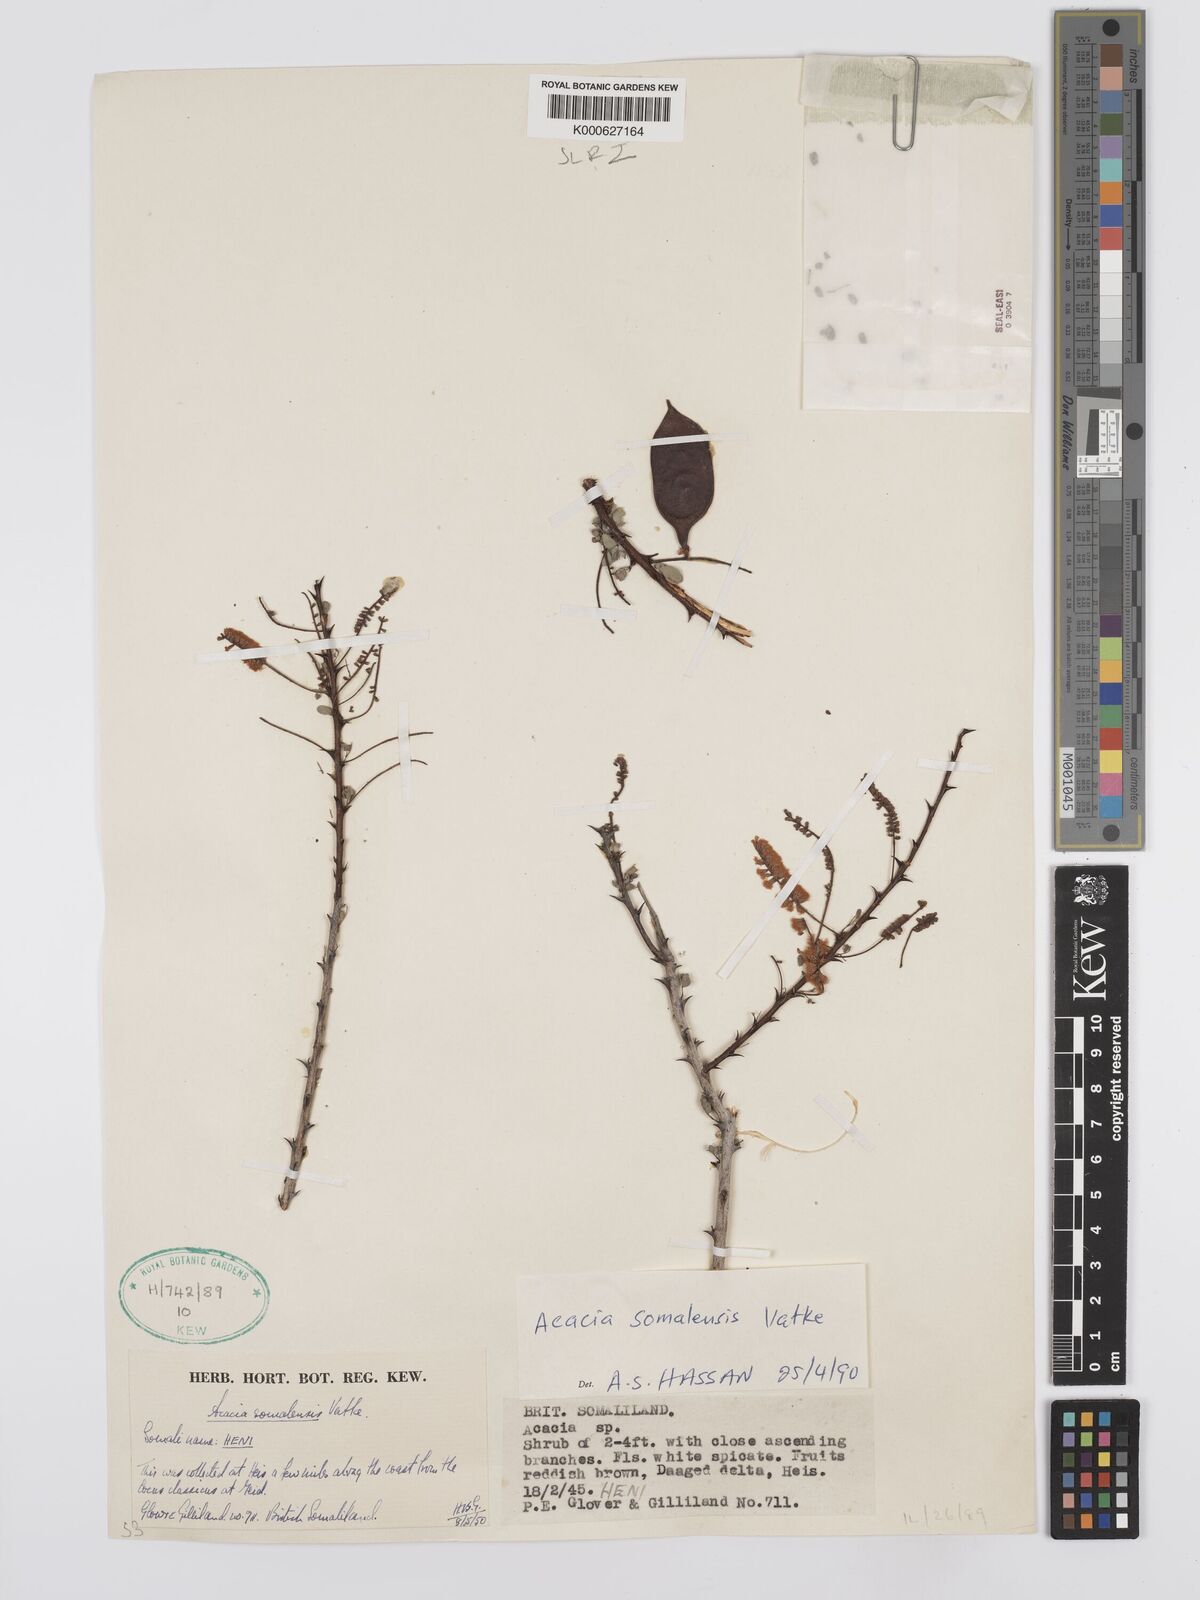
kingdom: Plantae
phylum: Tracheophyta
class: Magnoliopsida
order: Fabales
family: Fabaceae
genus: Senegalia
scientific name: Senegalia somalensis
